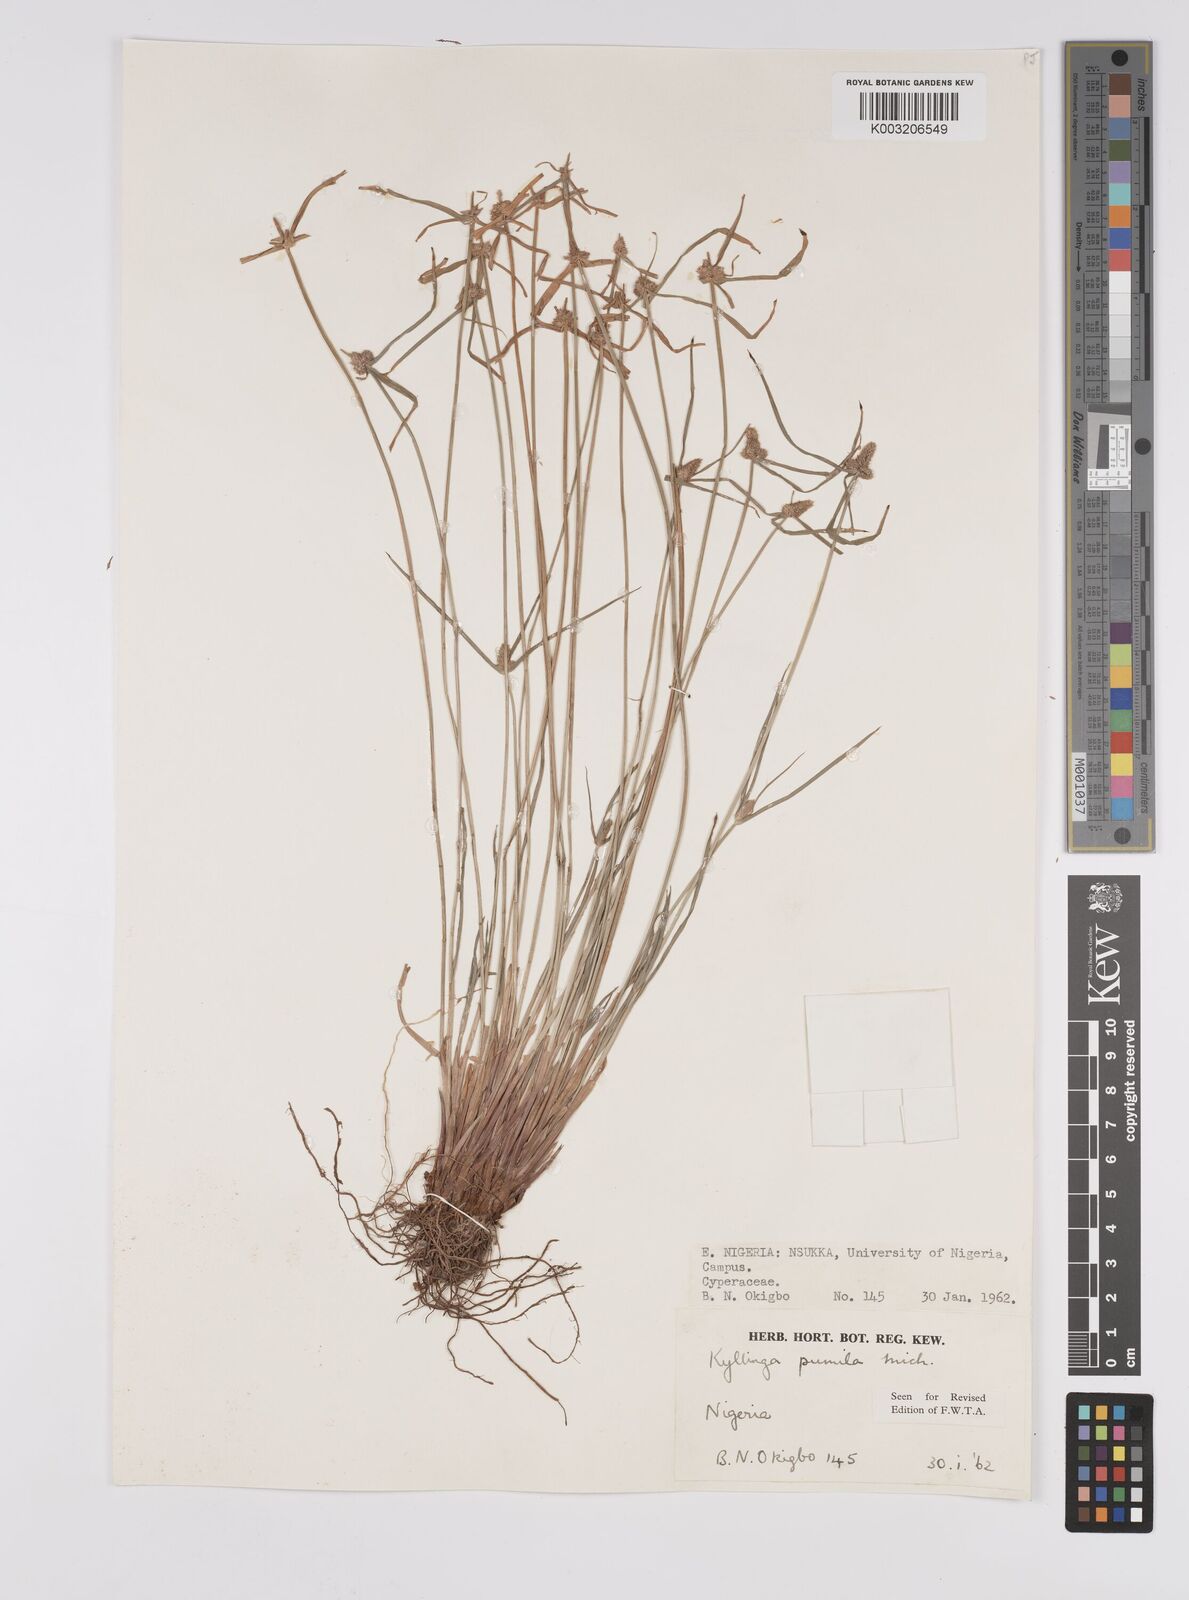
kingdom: Plantae
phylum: Tracheophyta
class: Liliopsida
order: Poales
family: Cyperaceae
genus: Cyperus
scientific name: Cyperus
